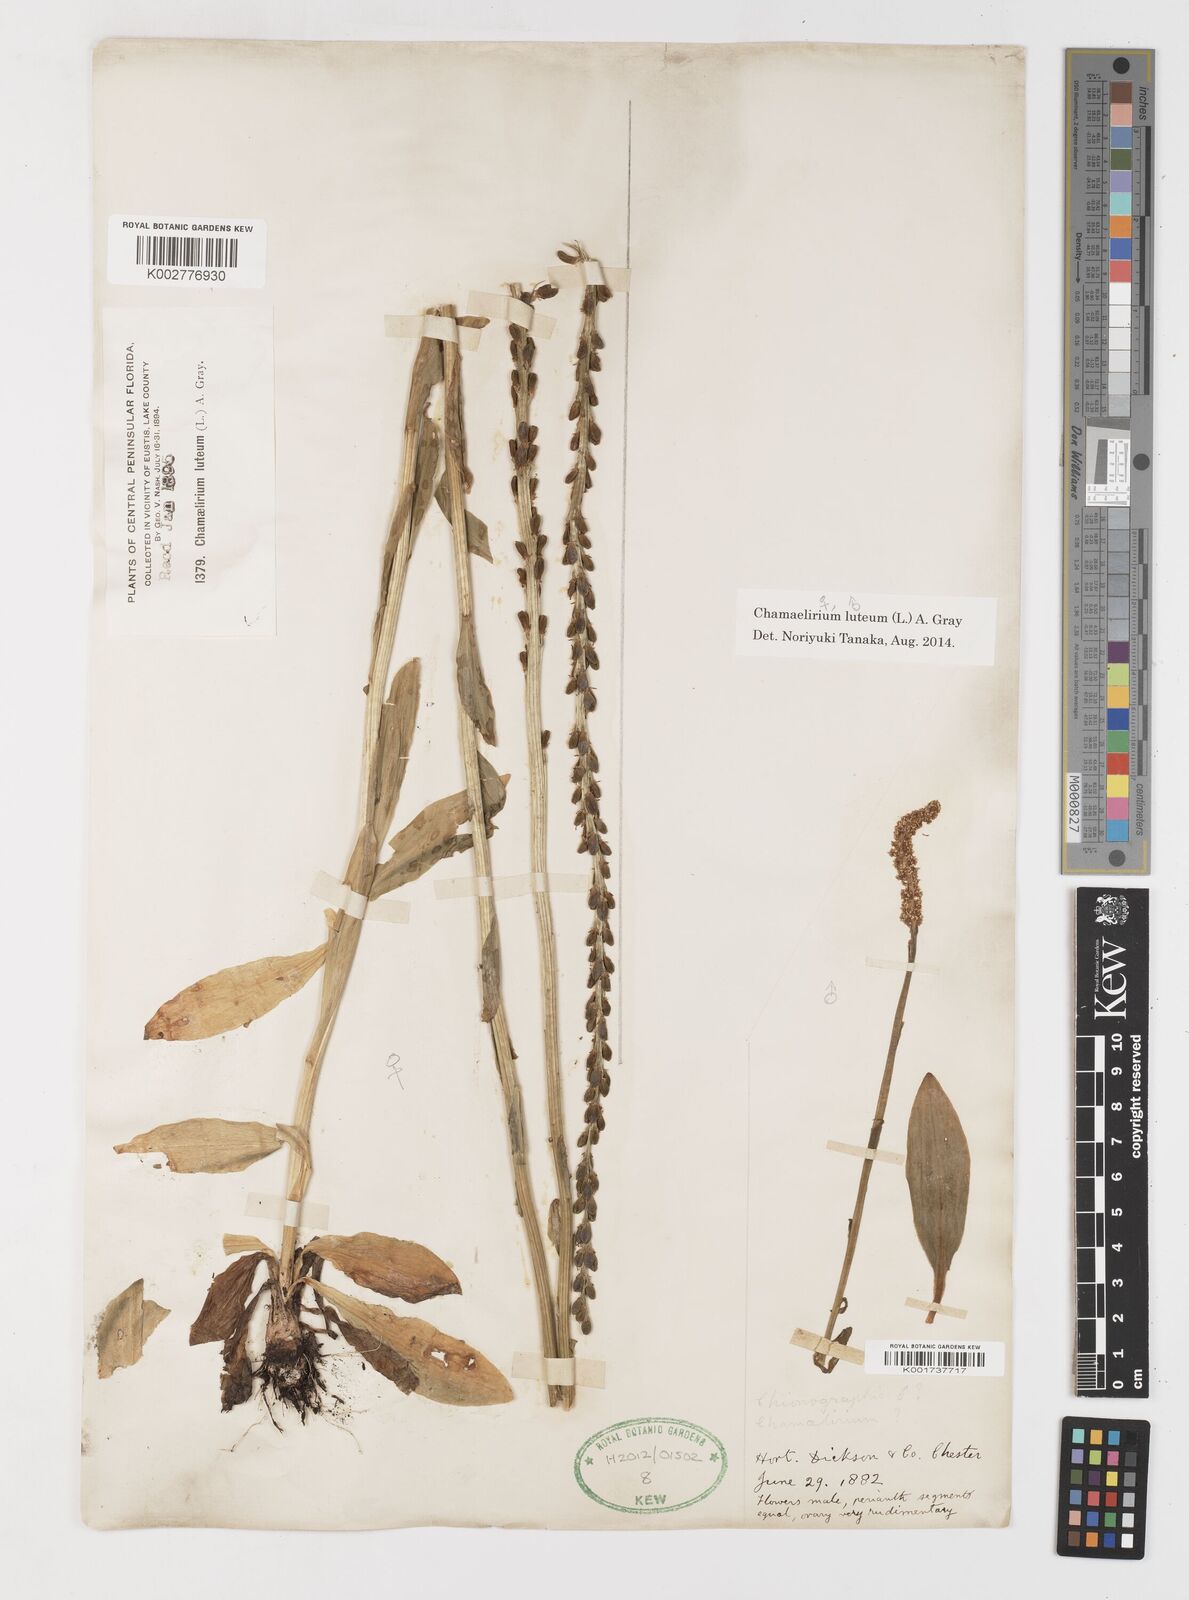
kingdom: Plantae
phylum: Tracheophyta
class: Liliopsida
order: Liliales
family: Melanthiaceae
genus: Chamaelirium
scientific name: Chamaelirium luteum
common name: Fairy-wand
